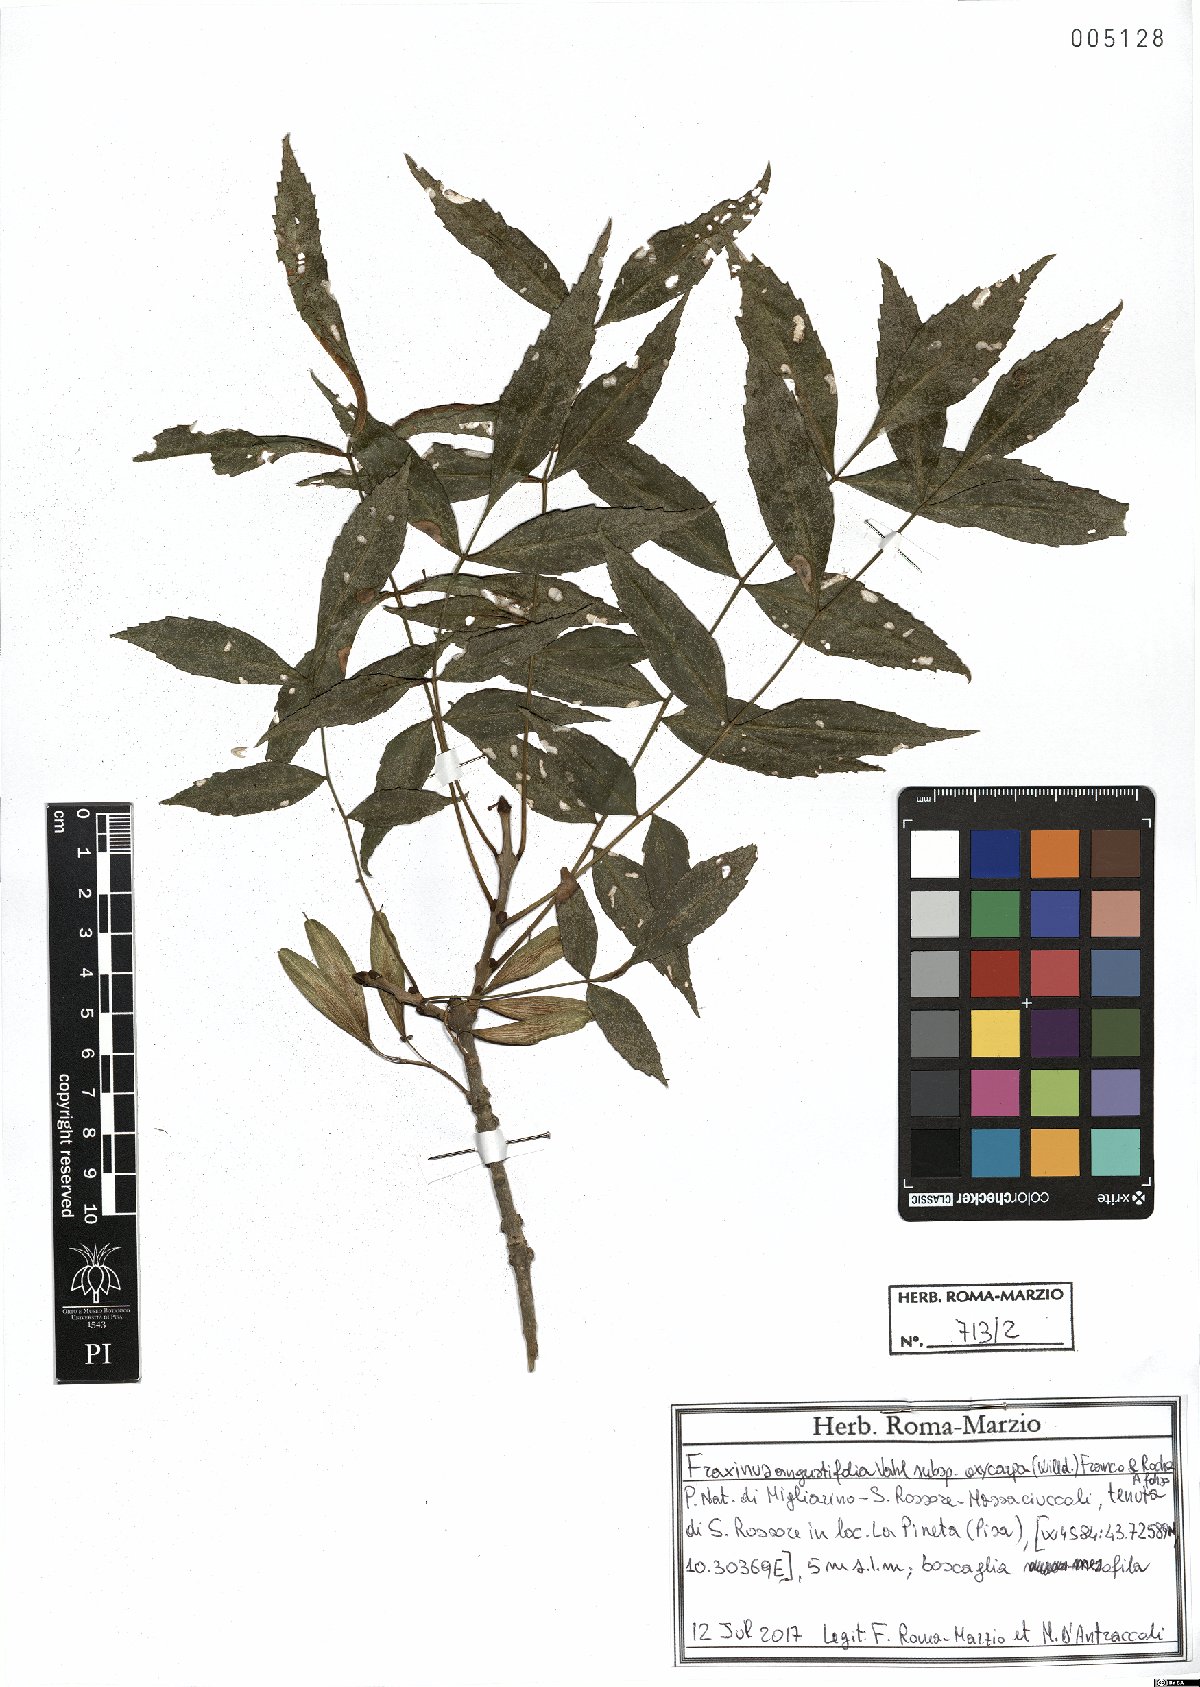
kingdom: Plantae
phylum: Tracheophyta
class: Magnoliopsida
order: Lamiales
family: Oleaceae
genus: Fraxinus
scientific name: Fraxinus angustifolia
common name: Narrow-leafed ash
